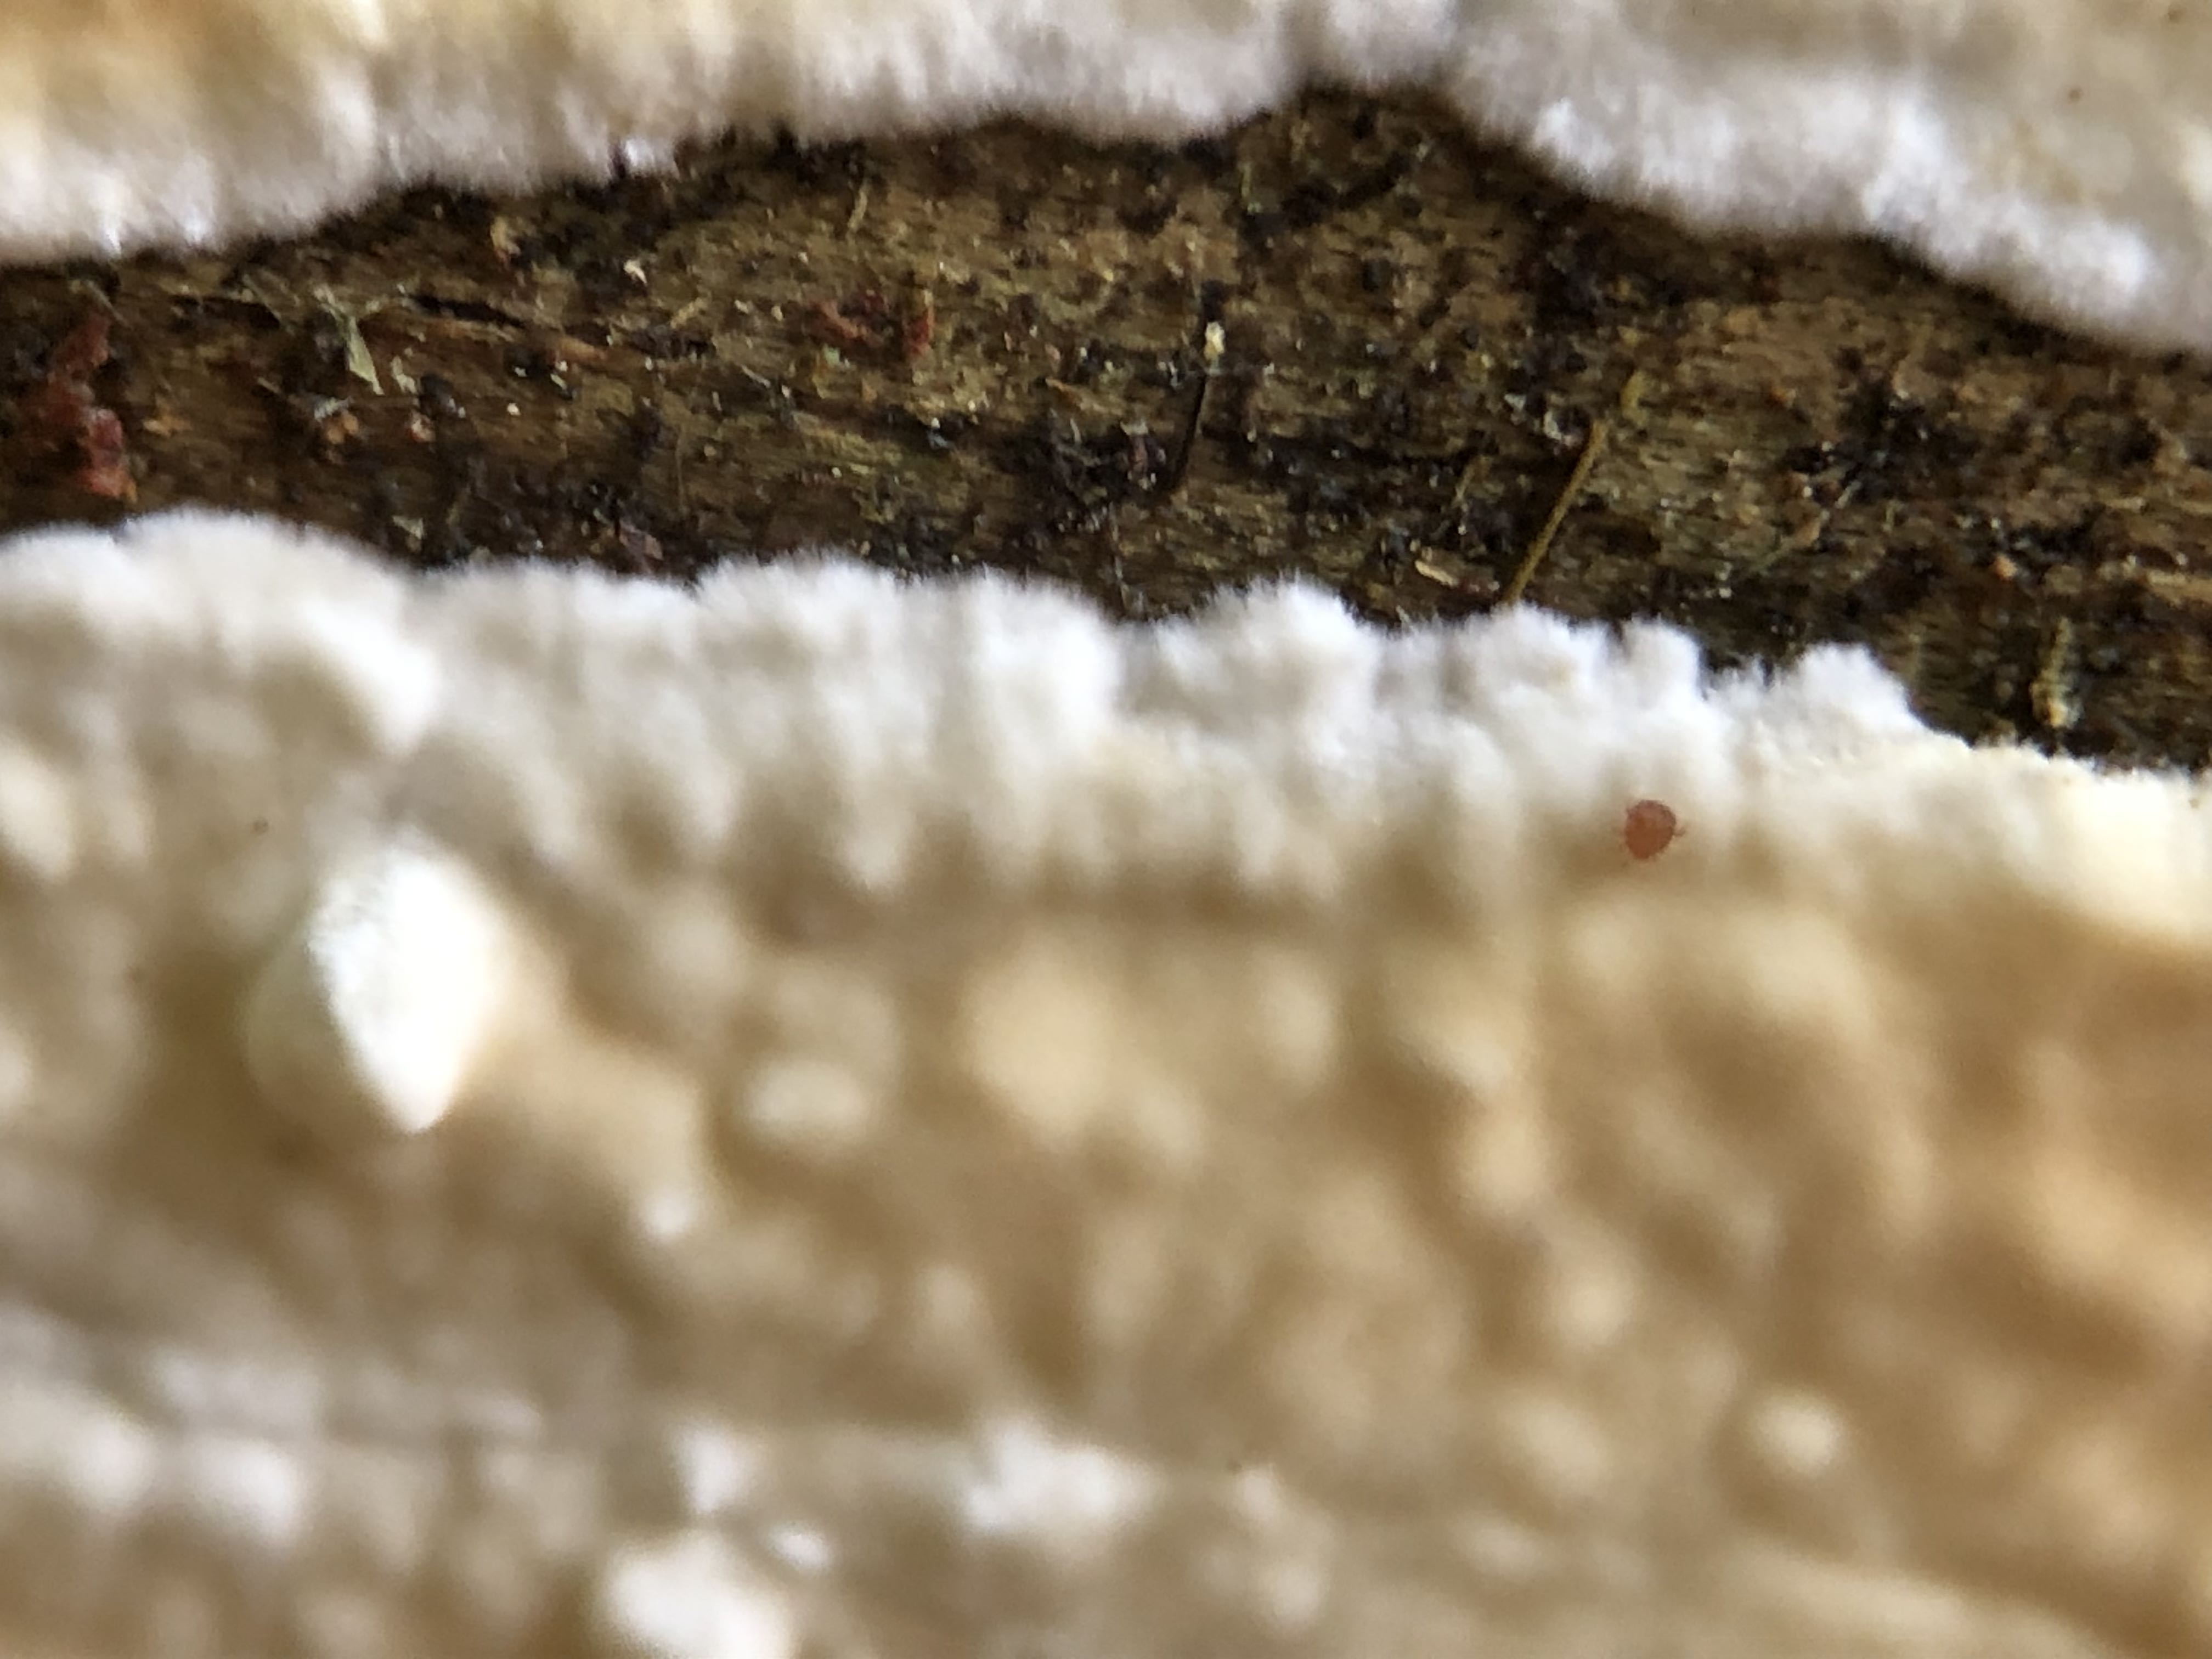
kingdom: Fungi
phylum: Basidiomycota
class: Agaricomycetes
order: Polyporales
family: Dacryobolaceae
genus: Dacryobolus
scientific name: Dacryobolus karstenii
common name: glat vulkanskorpe
